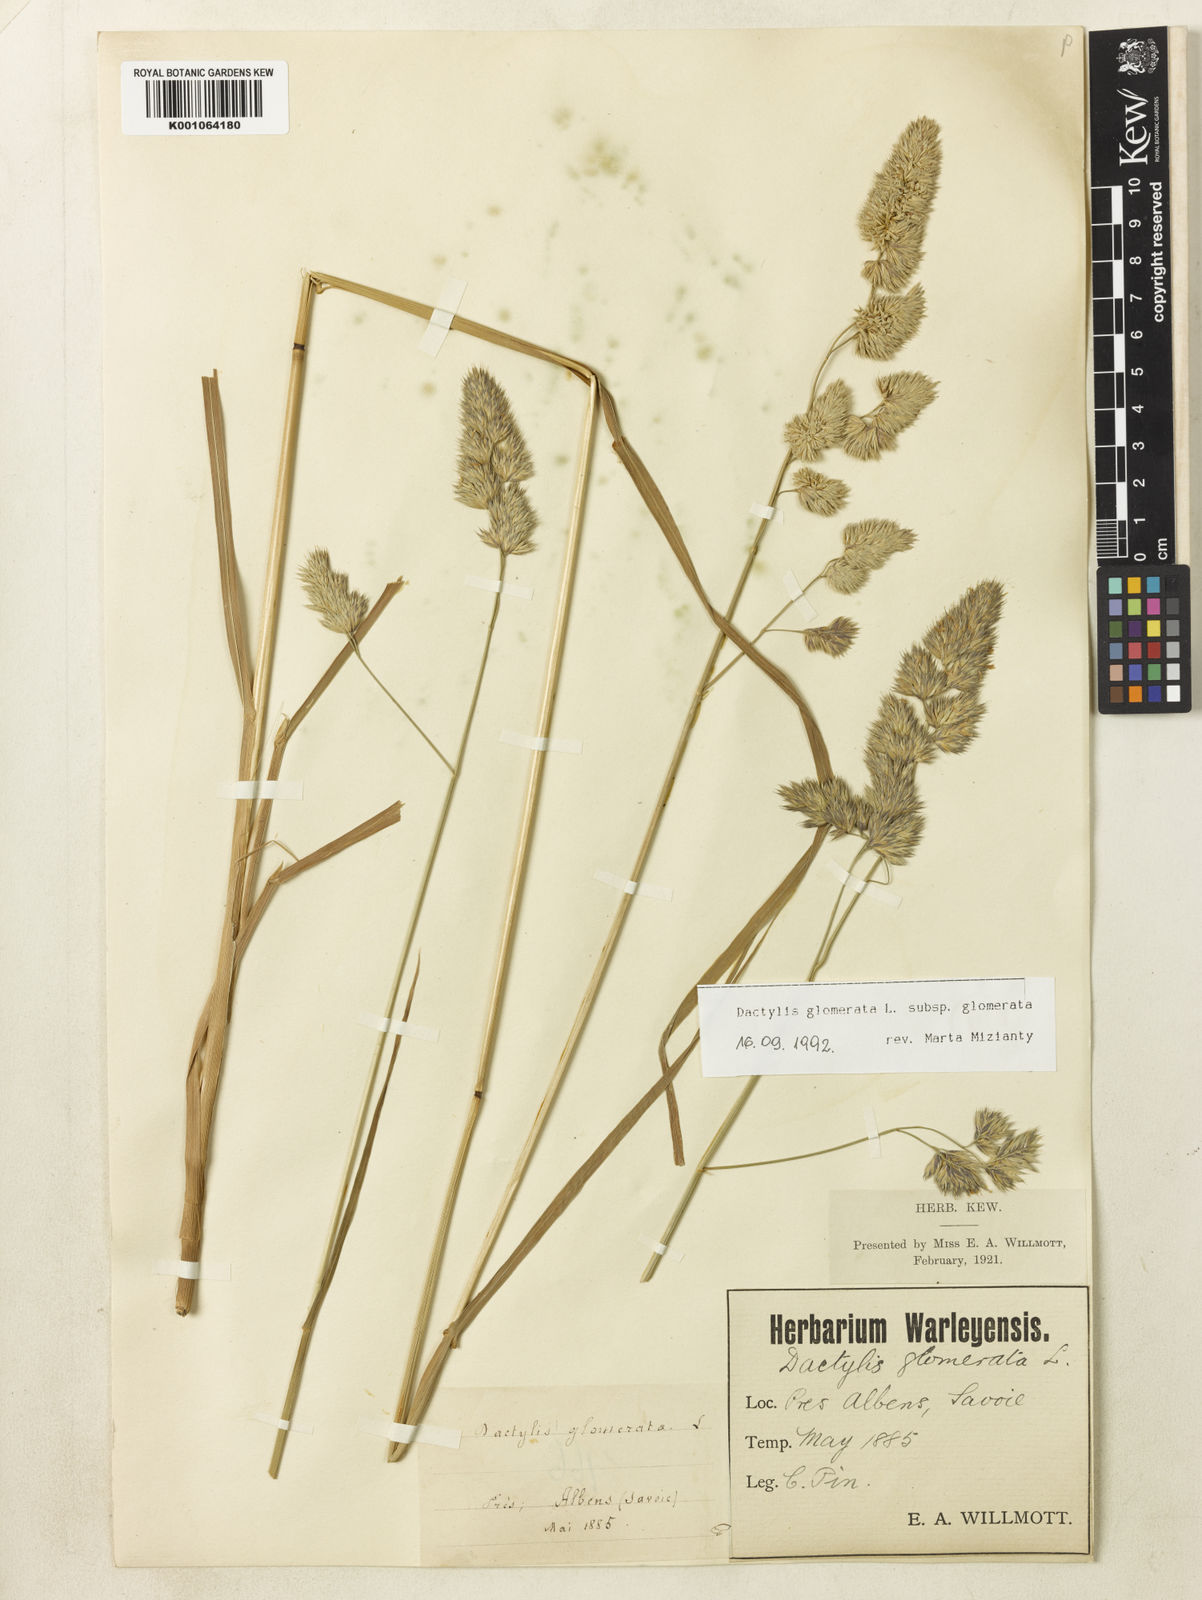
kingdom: Plantae
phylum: Tracheophyta
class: Liliopsida
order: Poales
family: Poaceae
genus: Dactylis
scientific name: Dactylis glomerata
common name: Orchardgrass
